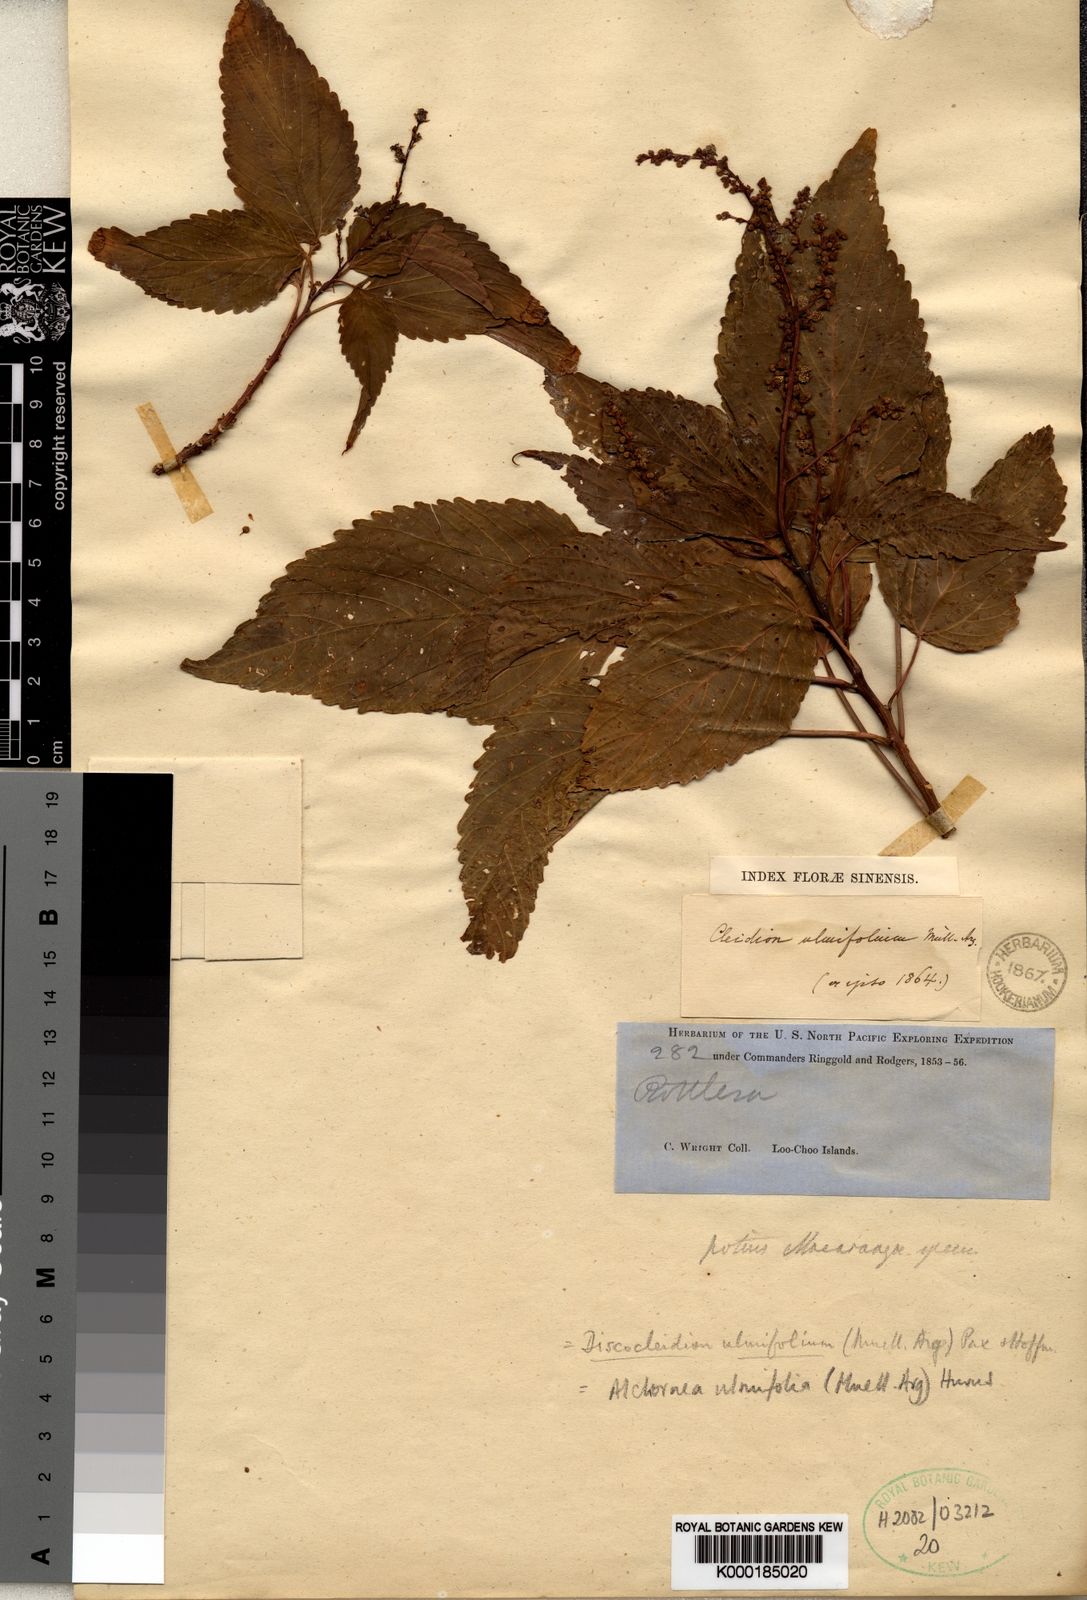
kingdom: Plantae
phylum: Tracheophyta
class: Magnoliopsida
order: Malpighiales
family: Euphorbiaceae
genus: Alchornea
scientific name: Alchornea
